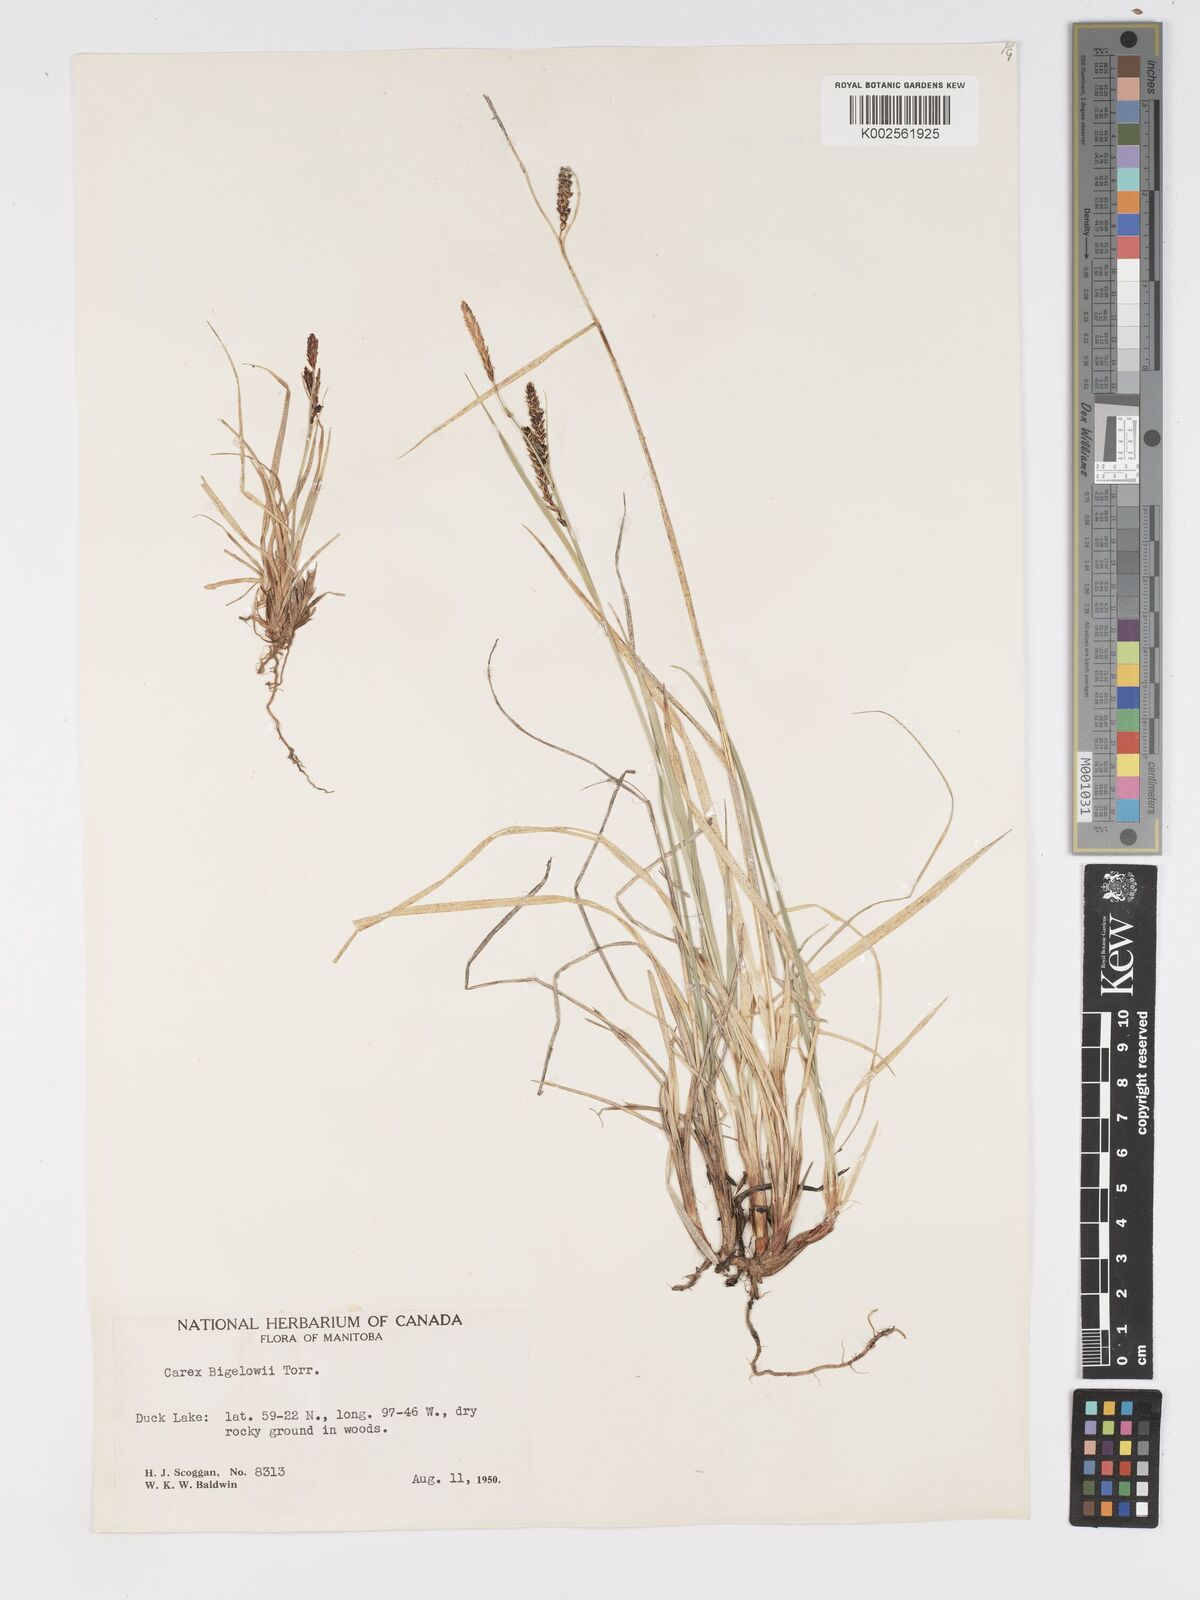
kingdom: Plantae
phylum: Tracheophyta
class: Liliopsida
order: Poales
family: Cyperaceae
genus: Carex
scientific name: Carex bigelowii
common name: Stiff sedge
